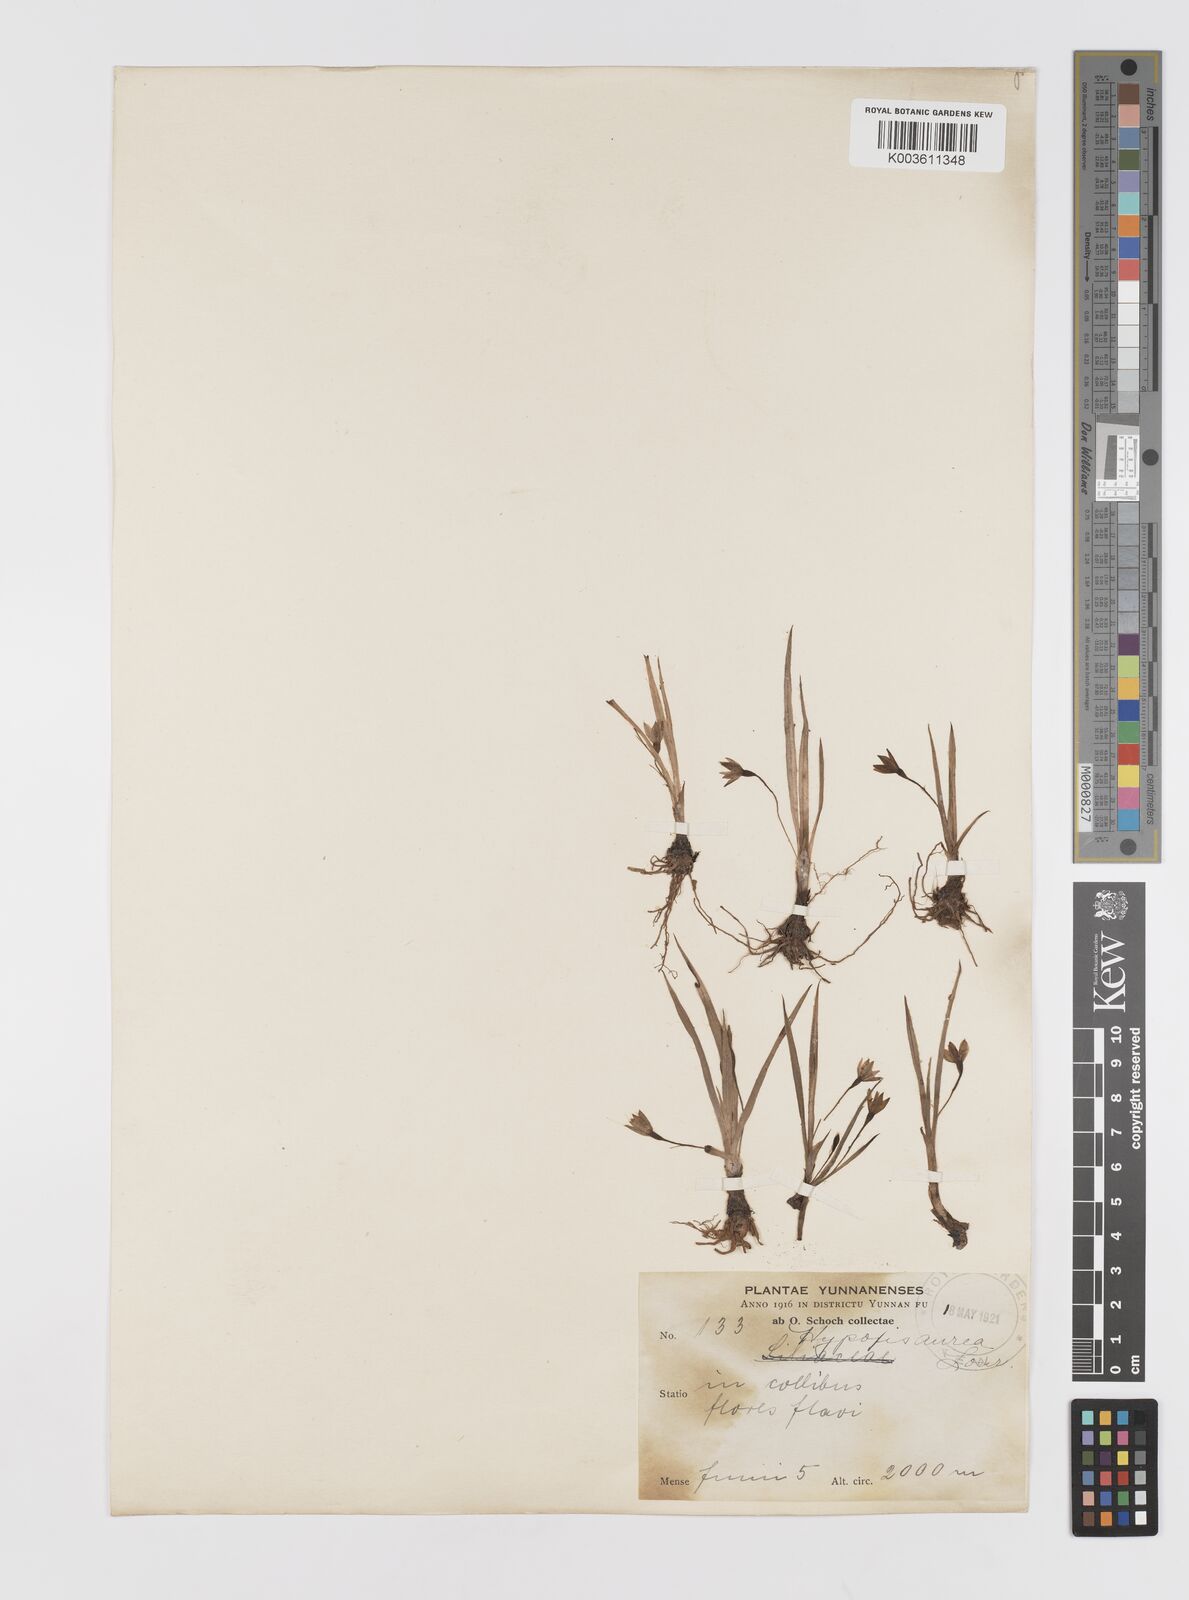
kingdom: Plantae
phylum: Tracheophyta
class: Liliopsida
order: Asparagales
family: Hypoxidaceae
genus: Hypoxis
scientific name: Hypoxis aurea
